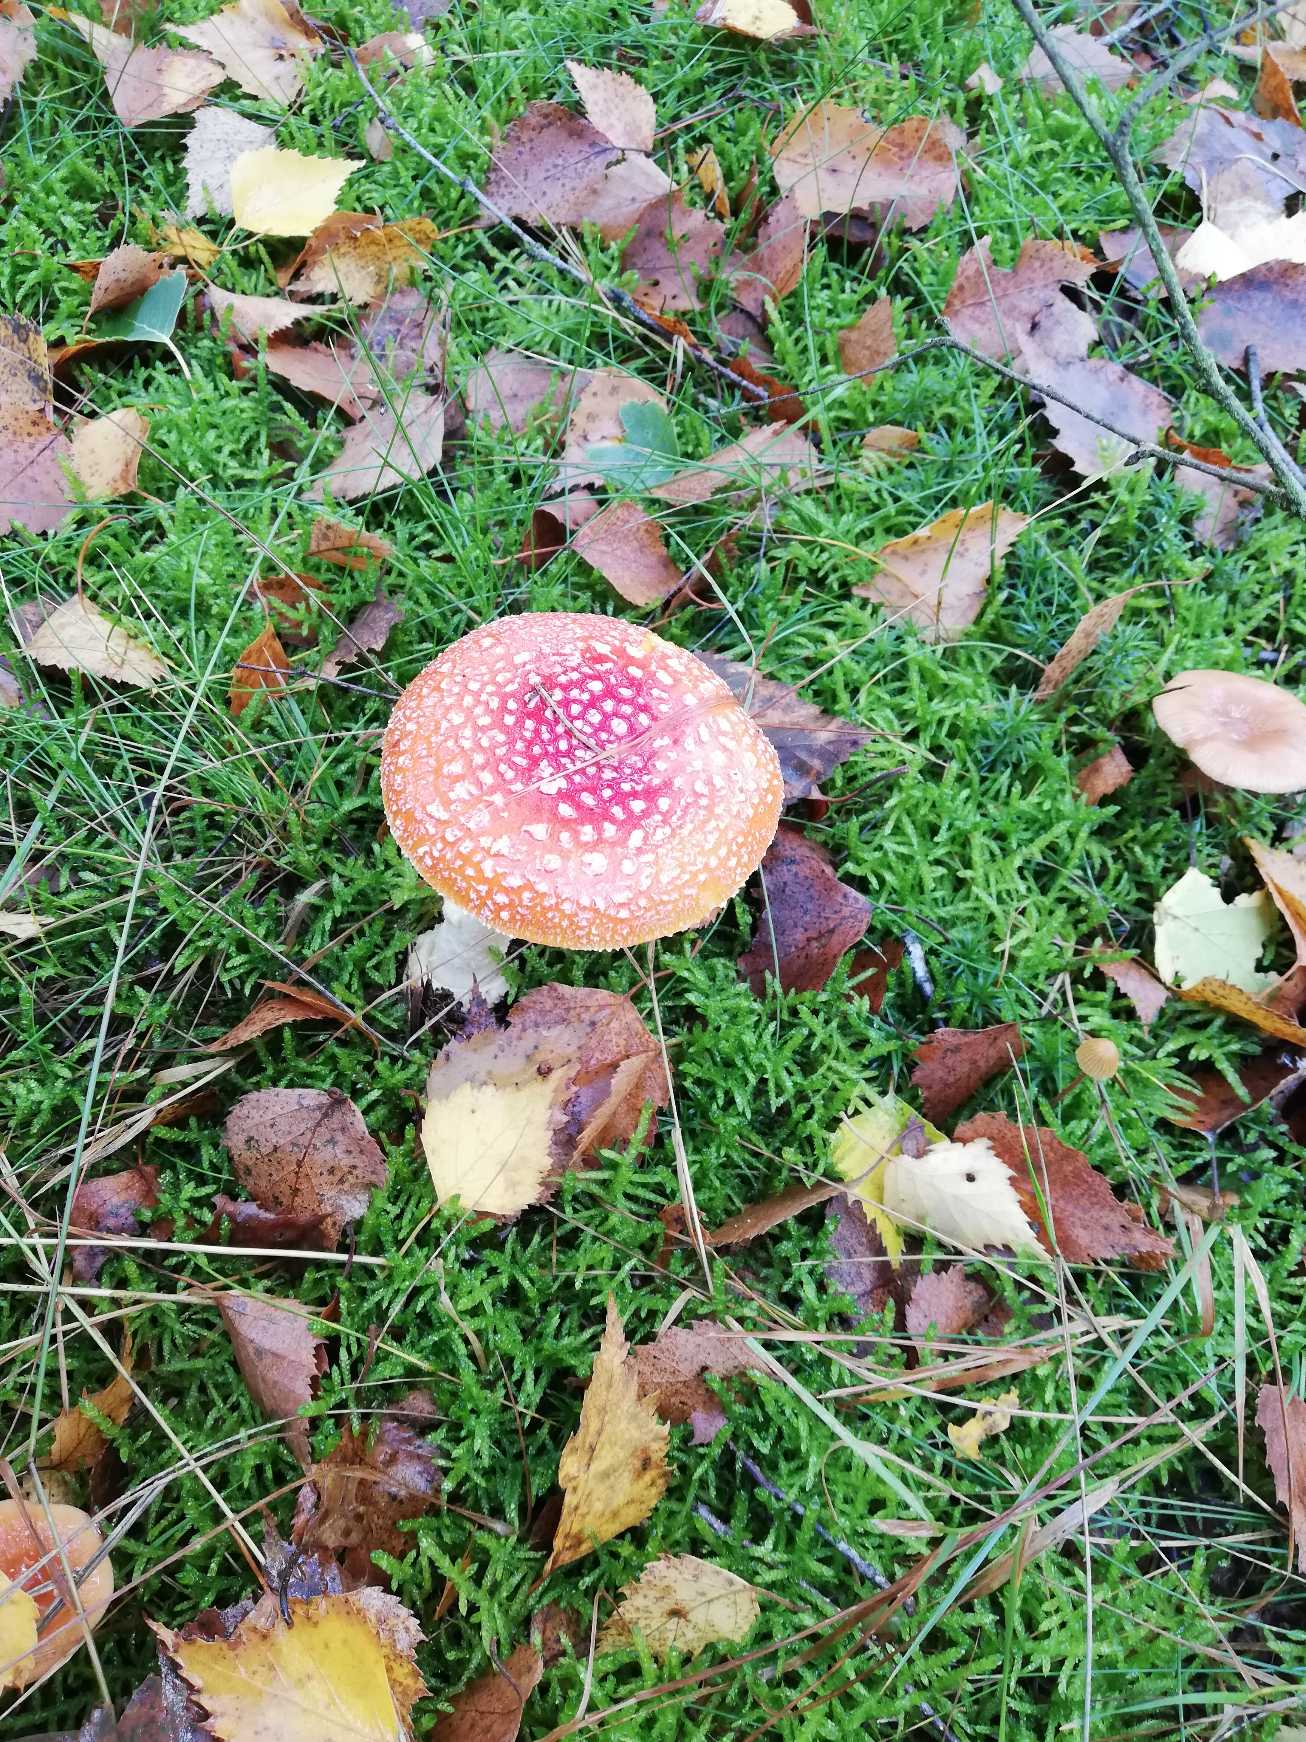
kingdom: Fungi
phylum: Basidiomycota
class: Agaricomycetes
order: Agaricales
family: Amanitaceae
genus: Amanita
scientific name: Amanita muscaria
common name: Rød fluesvamp
